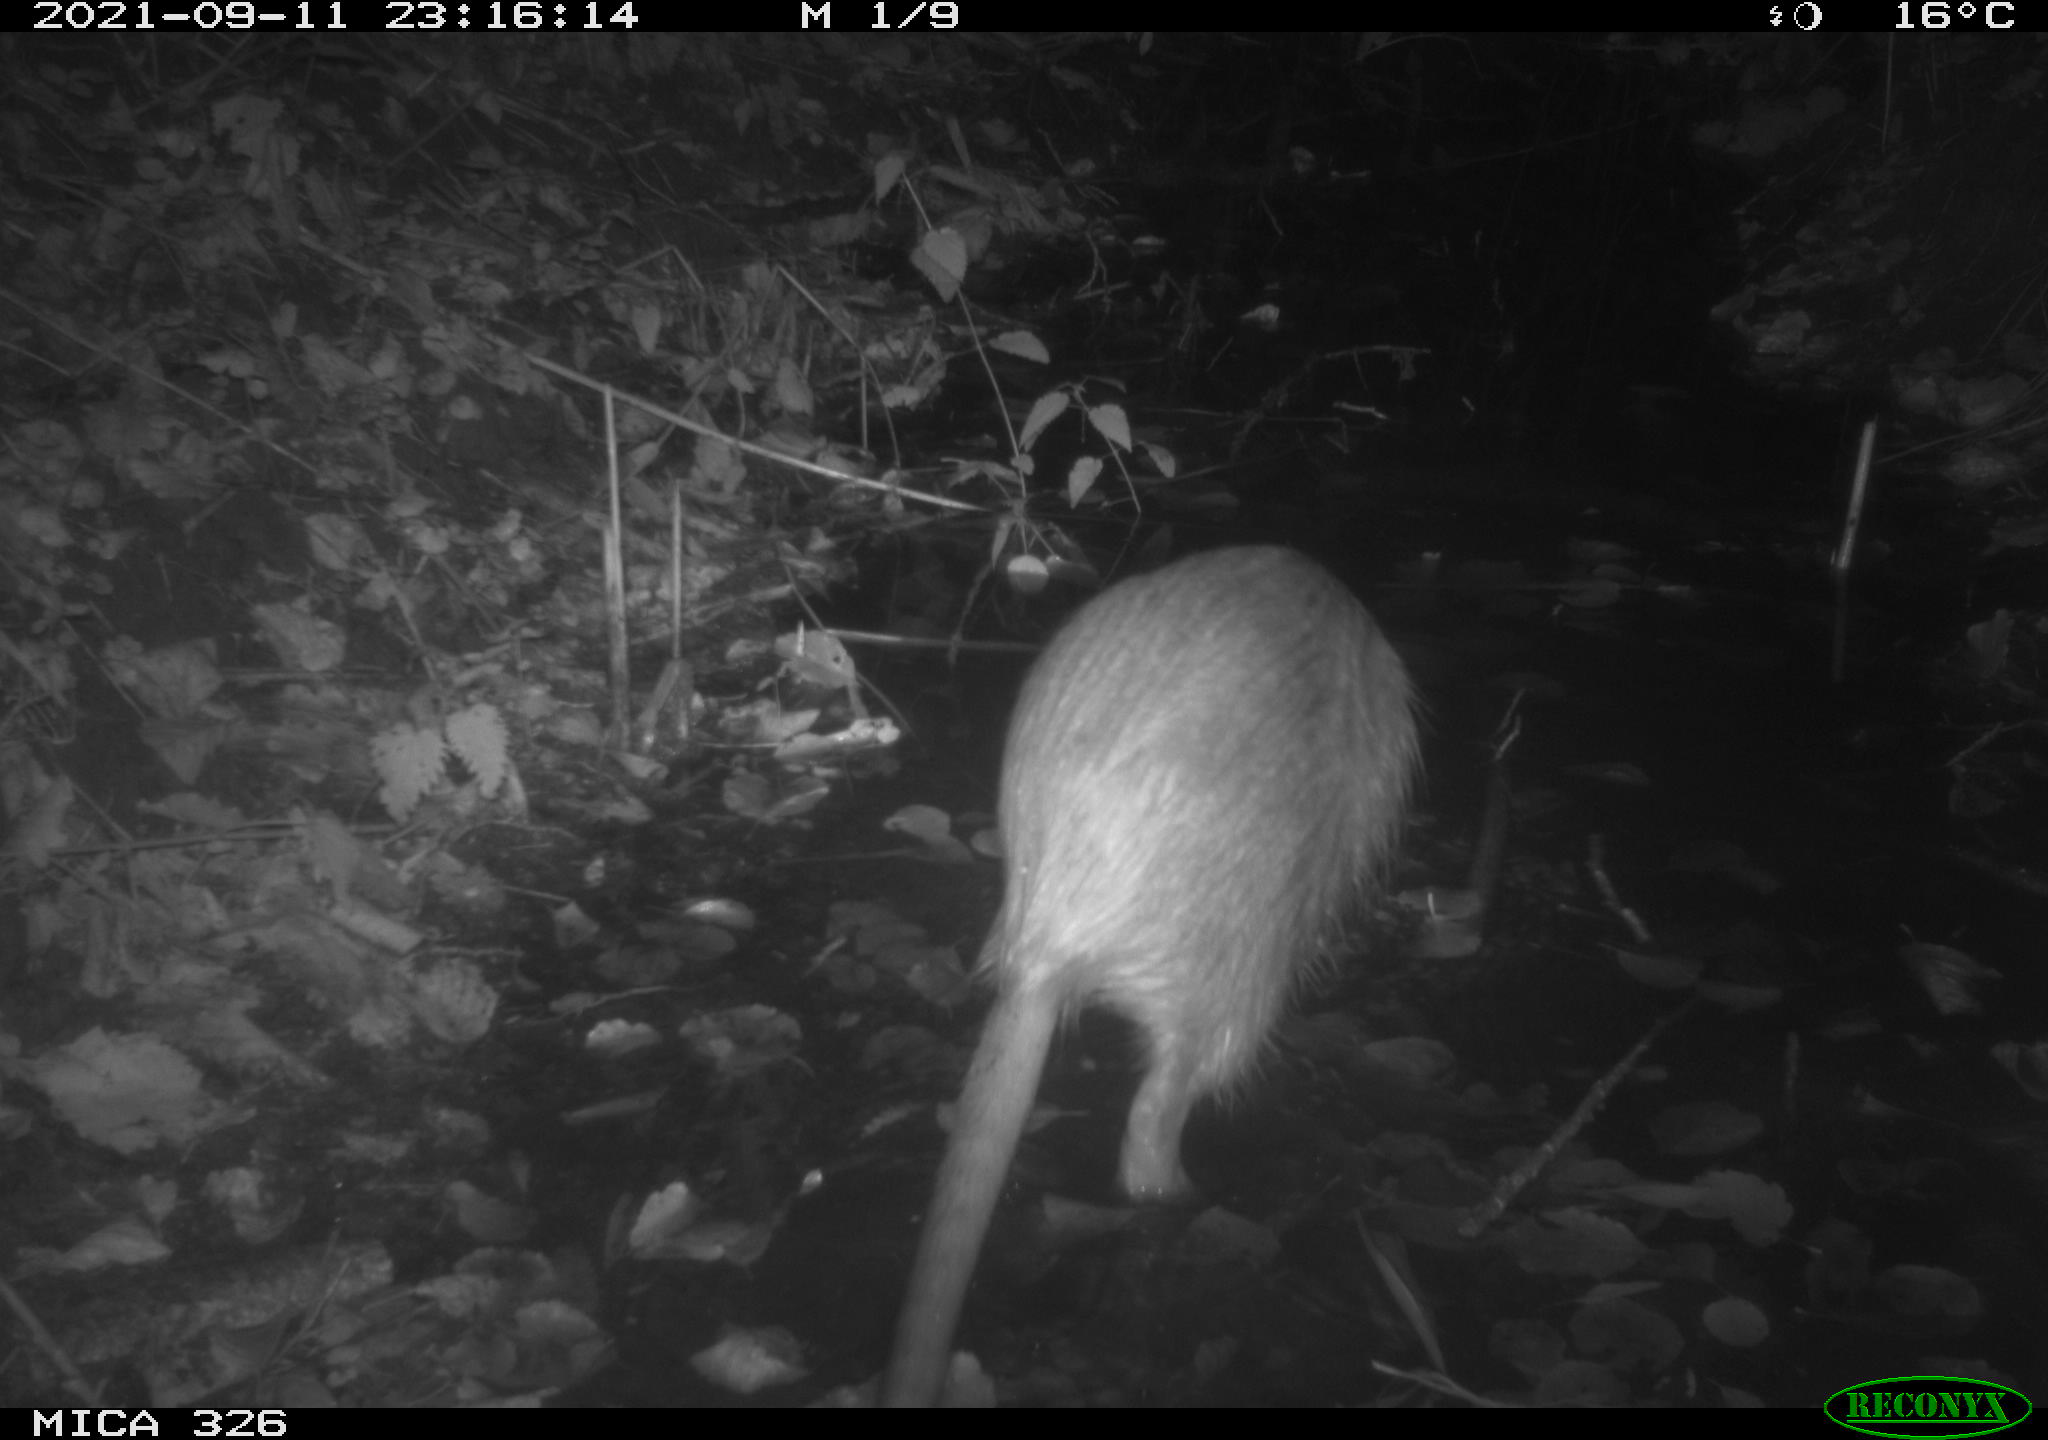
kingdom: Animalia
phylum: Chordata
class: Mammalia
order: Rodentia
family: Myocastoridae
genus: Myocastor
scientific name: Myocastor coypus
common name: Coypu
